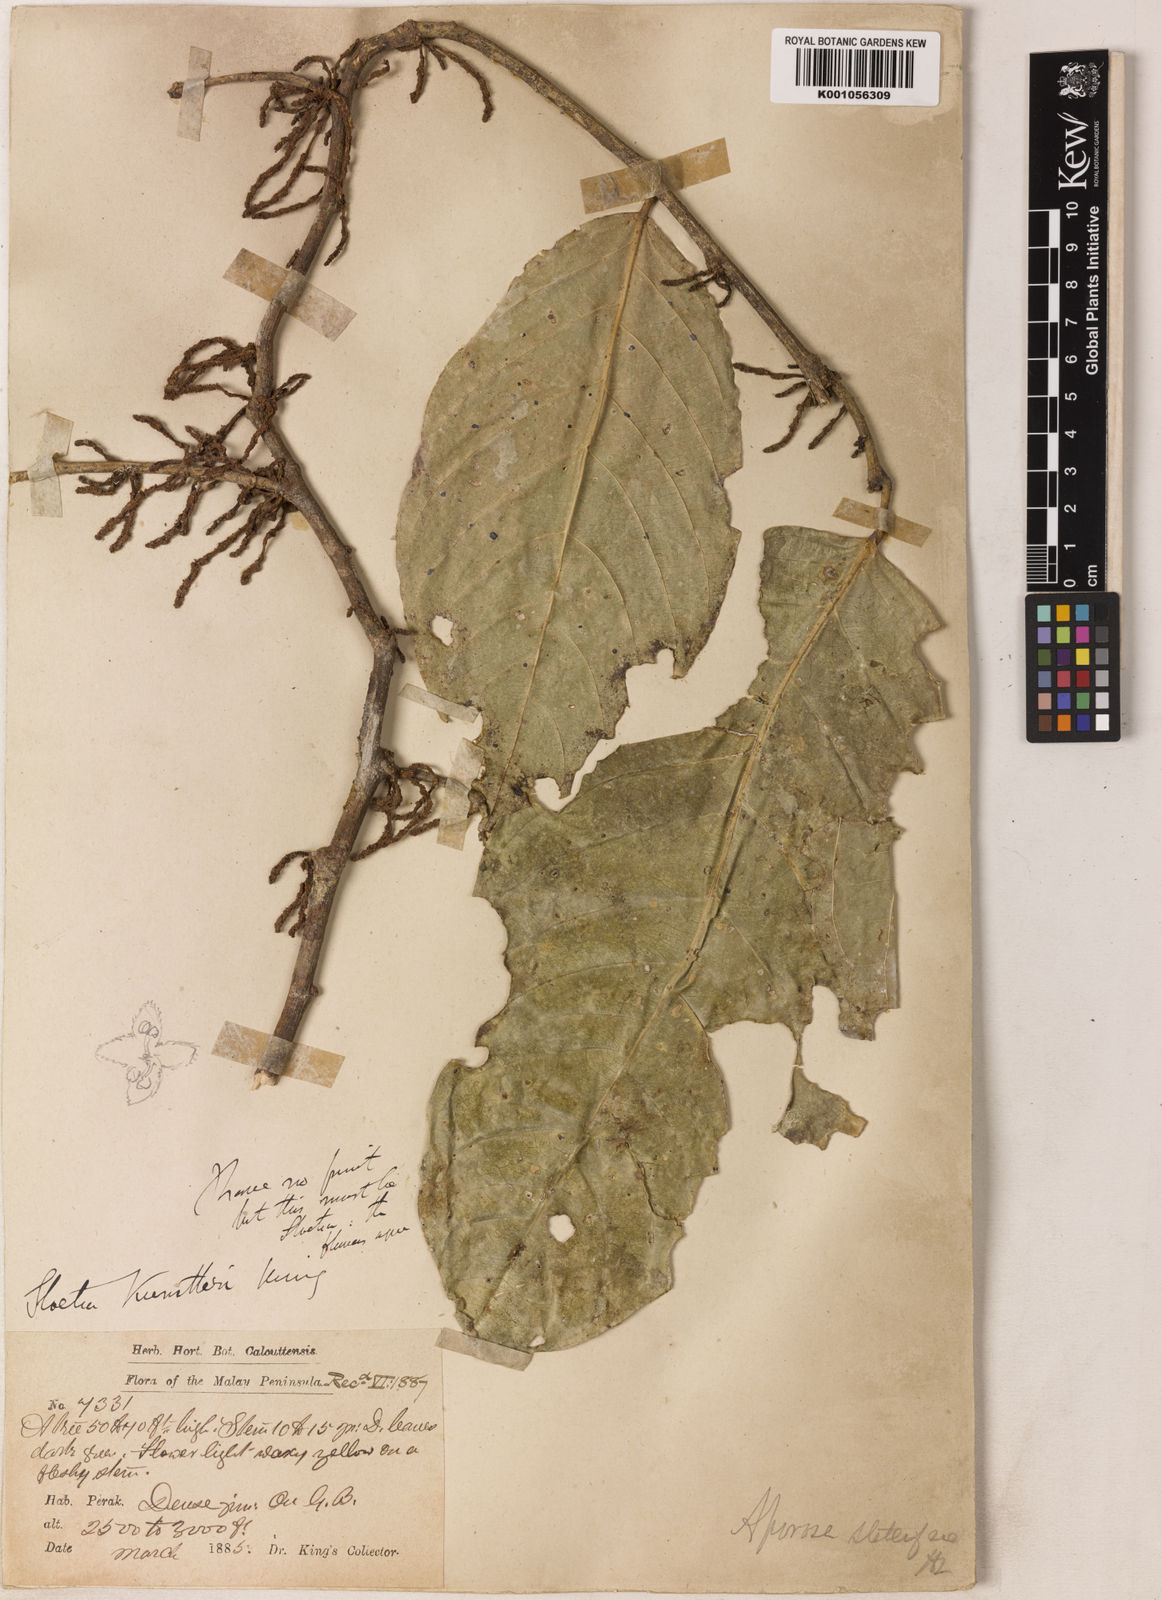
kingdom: Plantae
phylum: Tracheophyta
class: Magnoliopsida
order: Malpighiales
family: Phyllanthaceae
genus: Aporosa
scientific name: Aporosa stellifera
